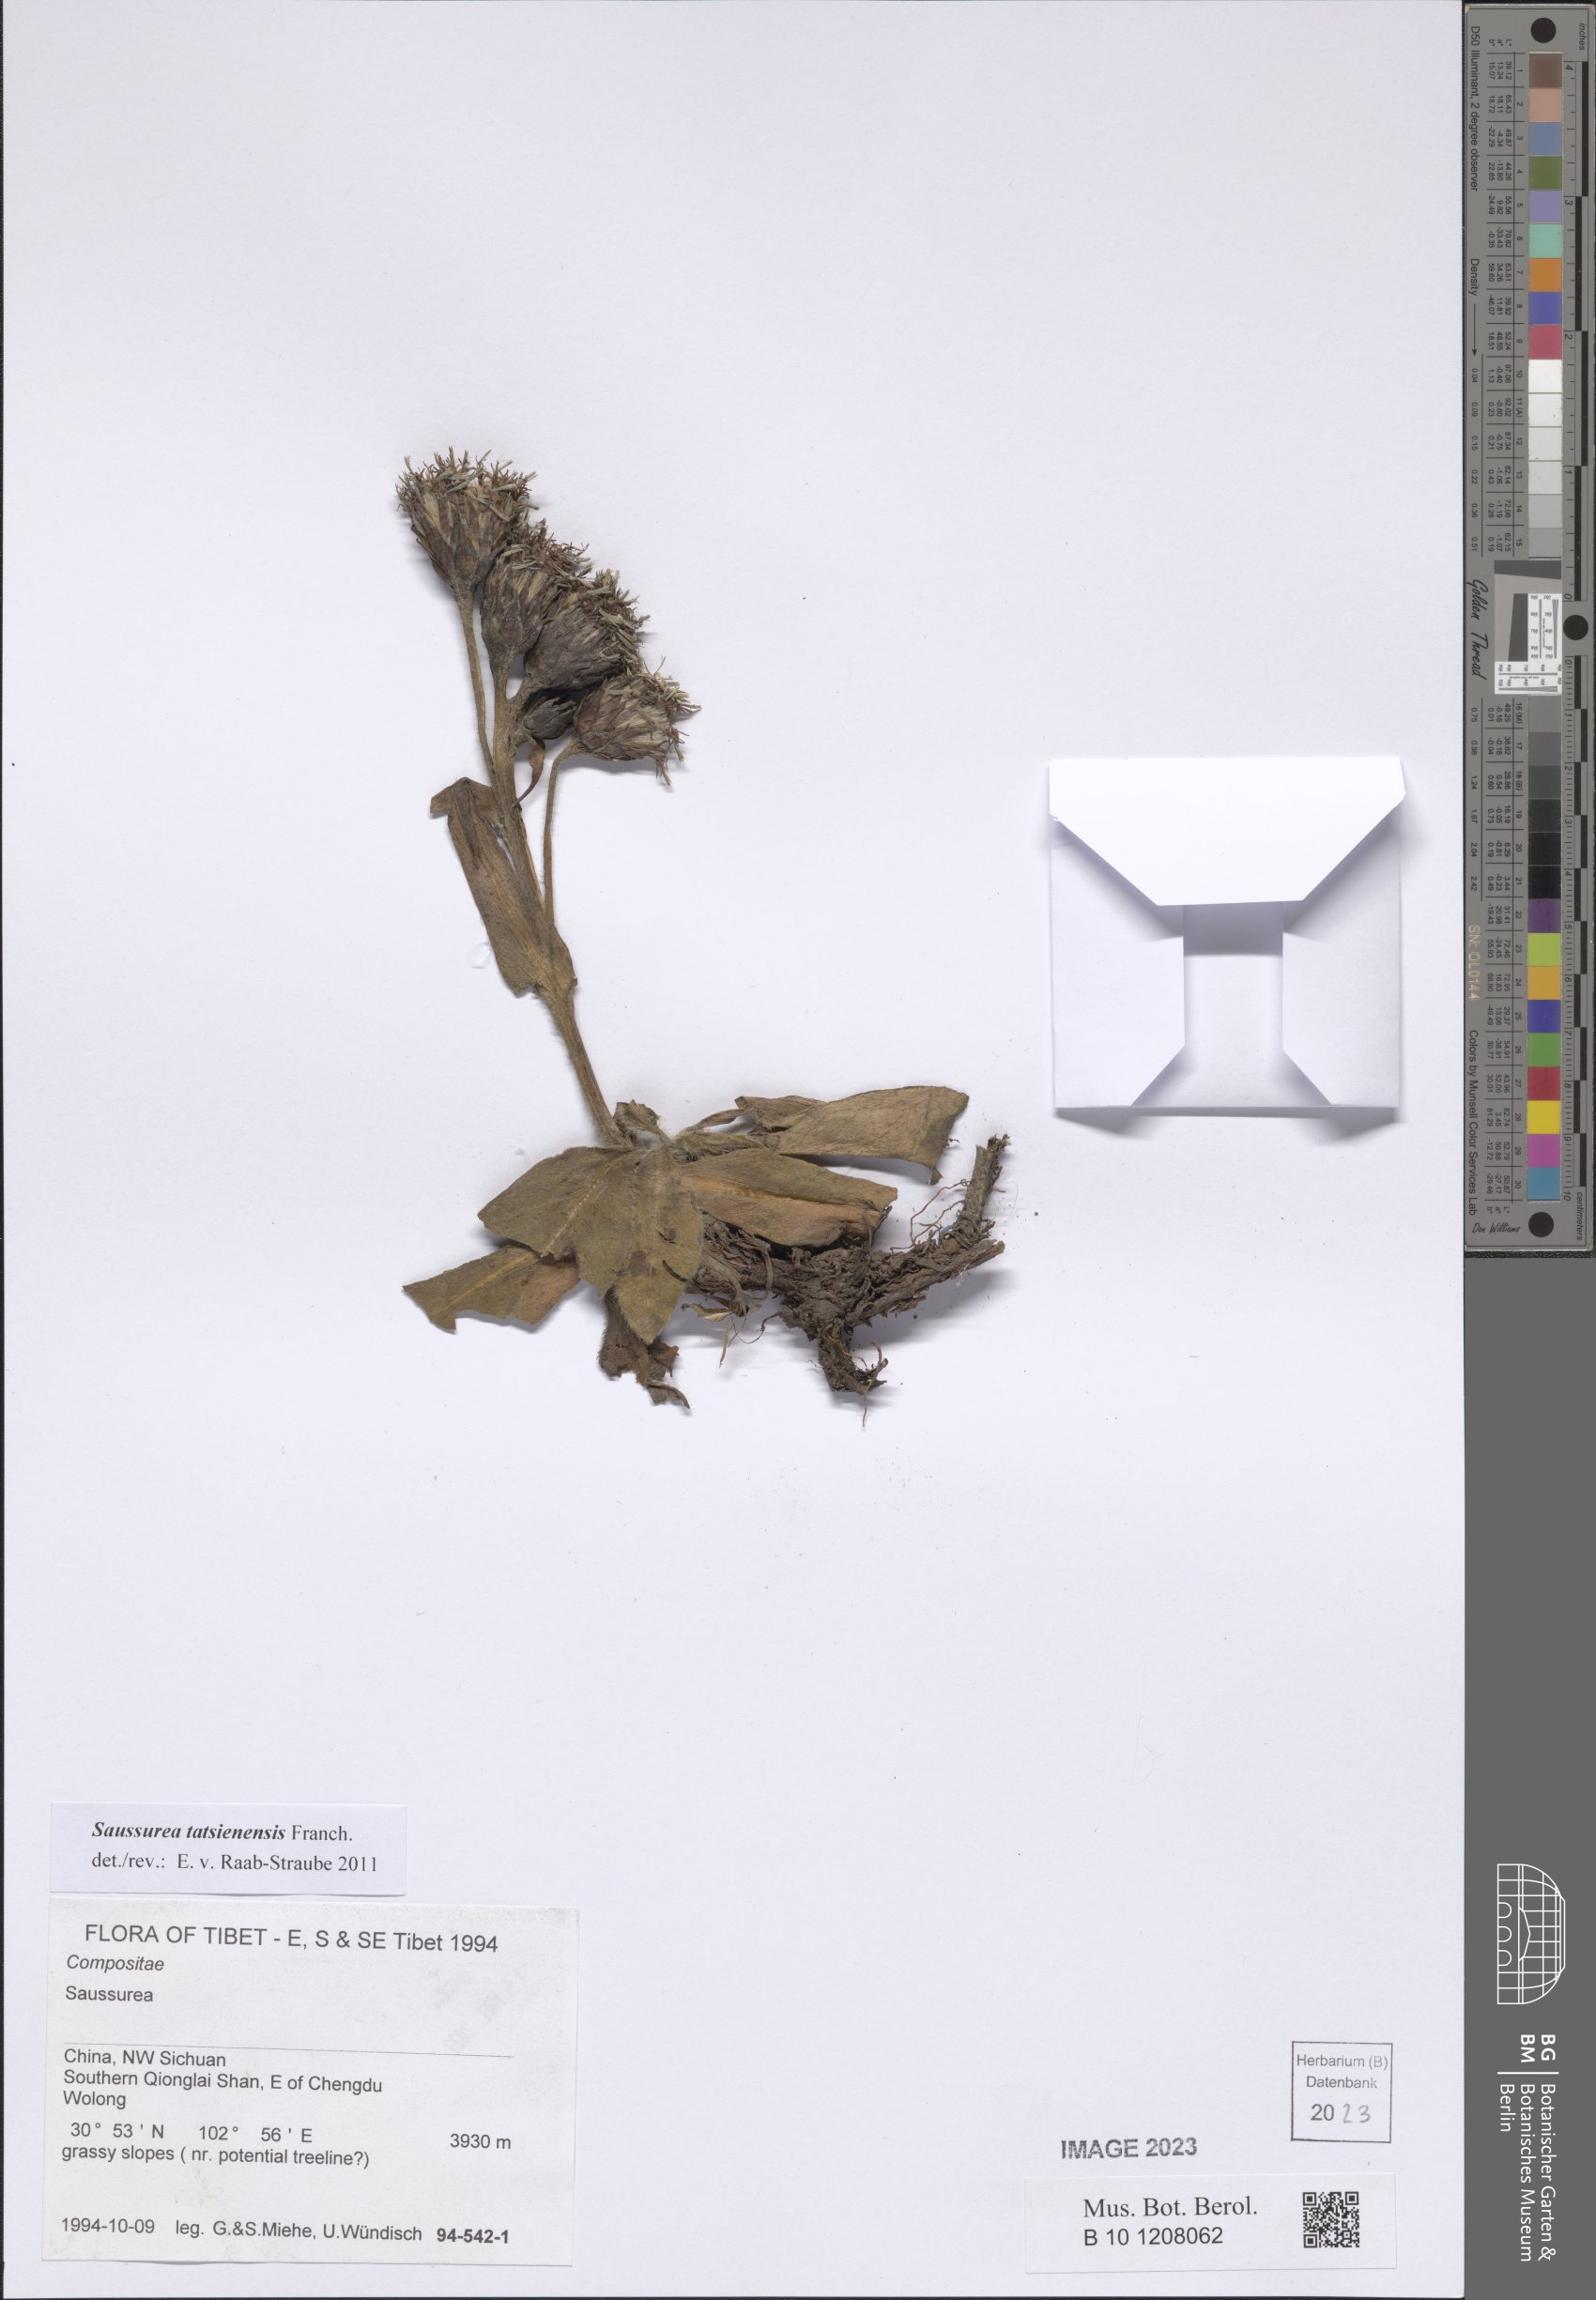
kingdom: Plantae
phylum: Tracheophyta
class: Magnoliopsida
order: Asterales
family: Asteraceae
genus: Saussurea
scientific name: Saussurea tatsienensis
